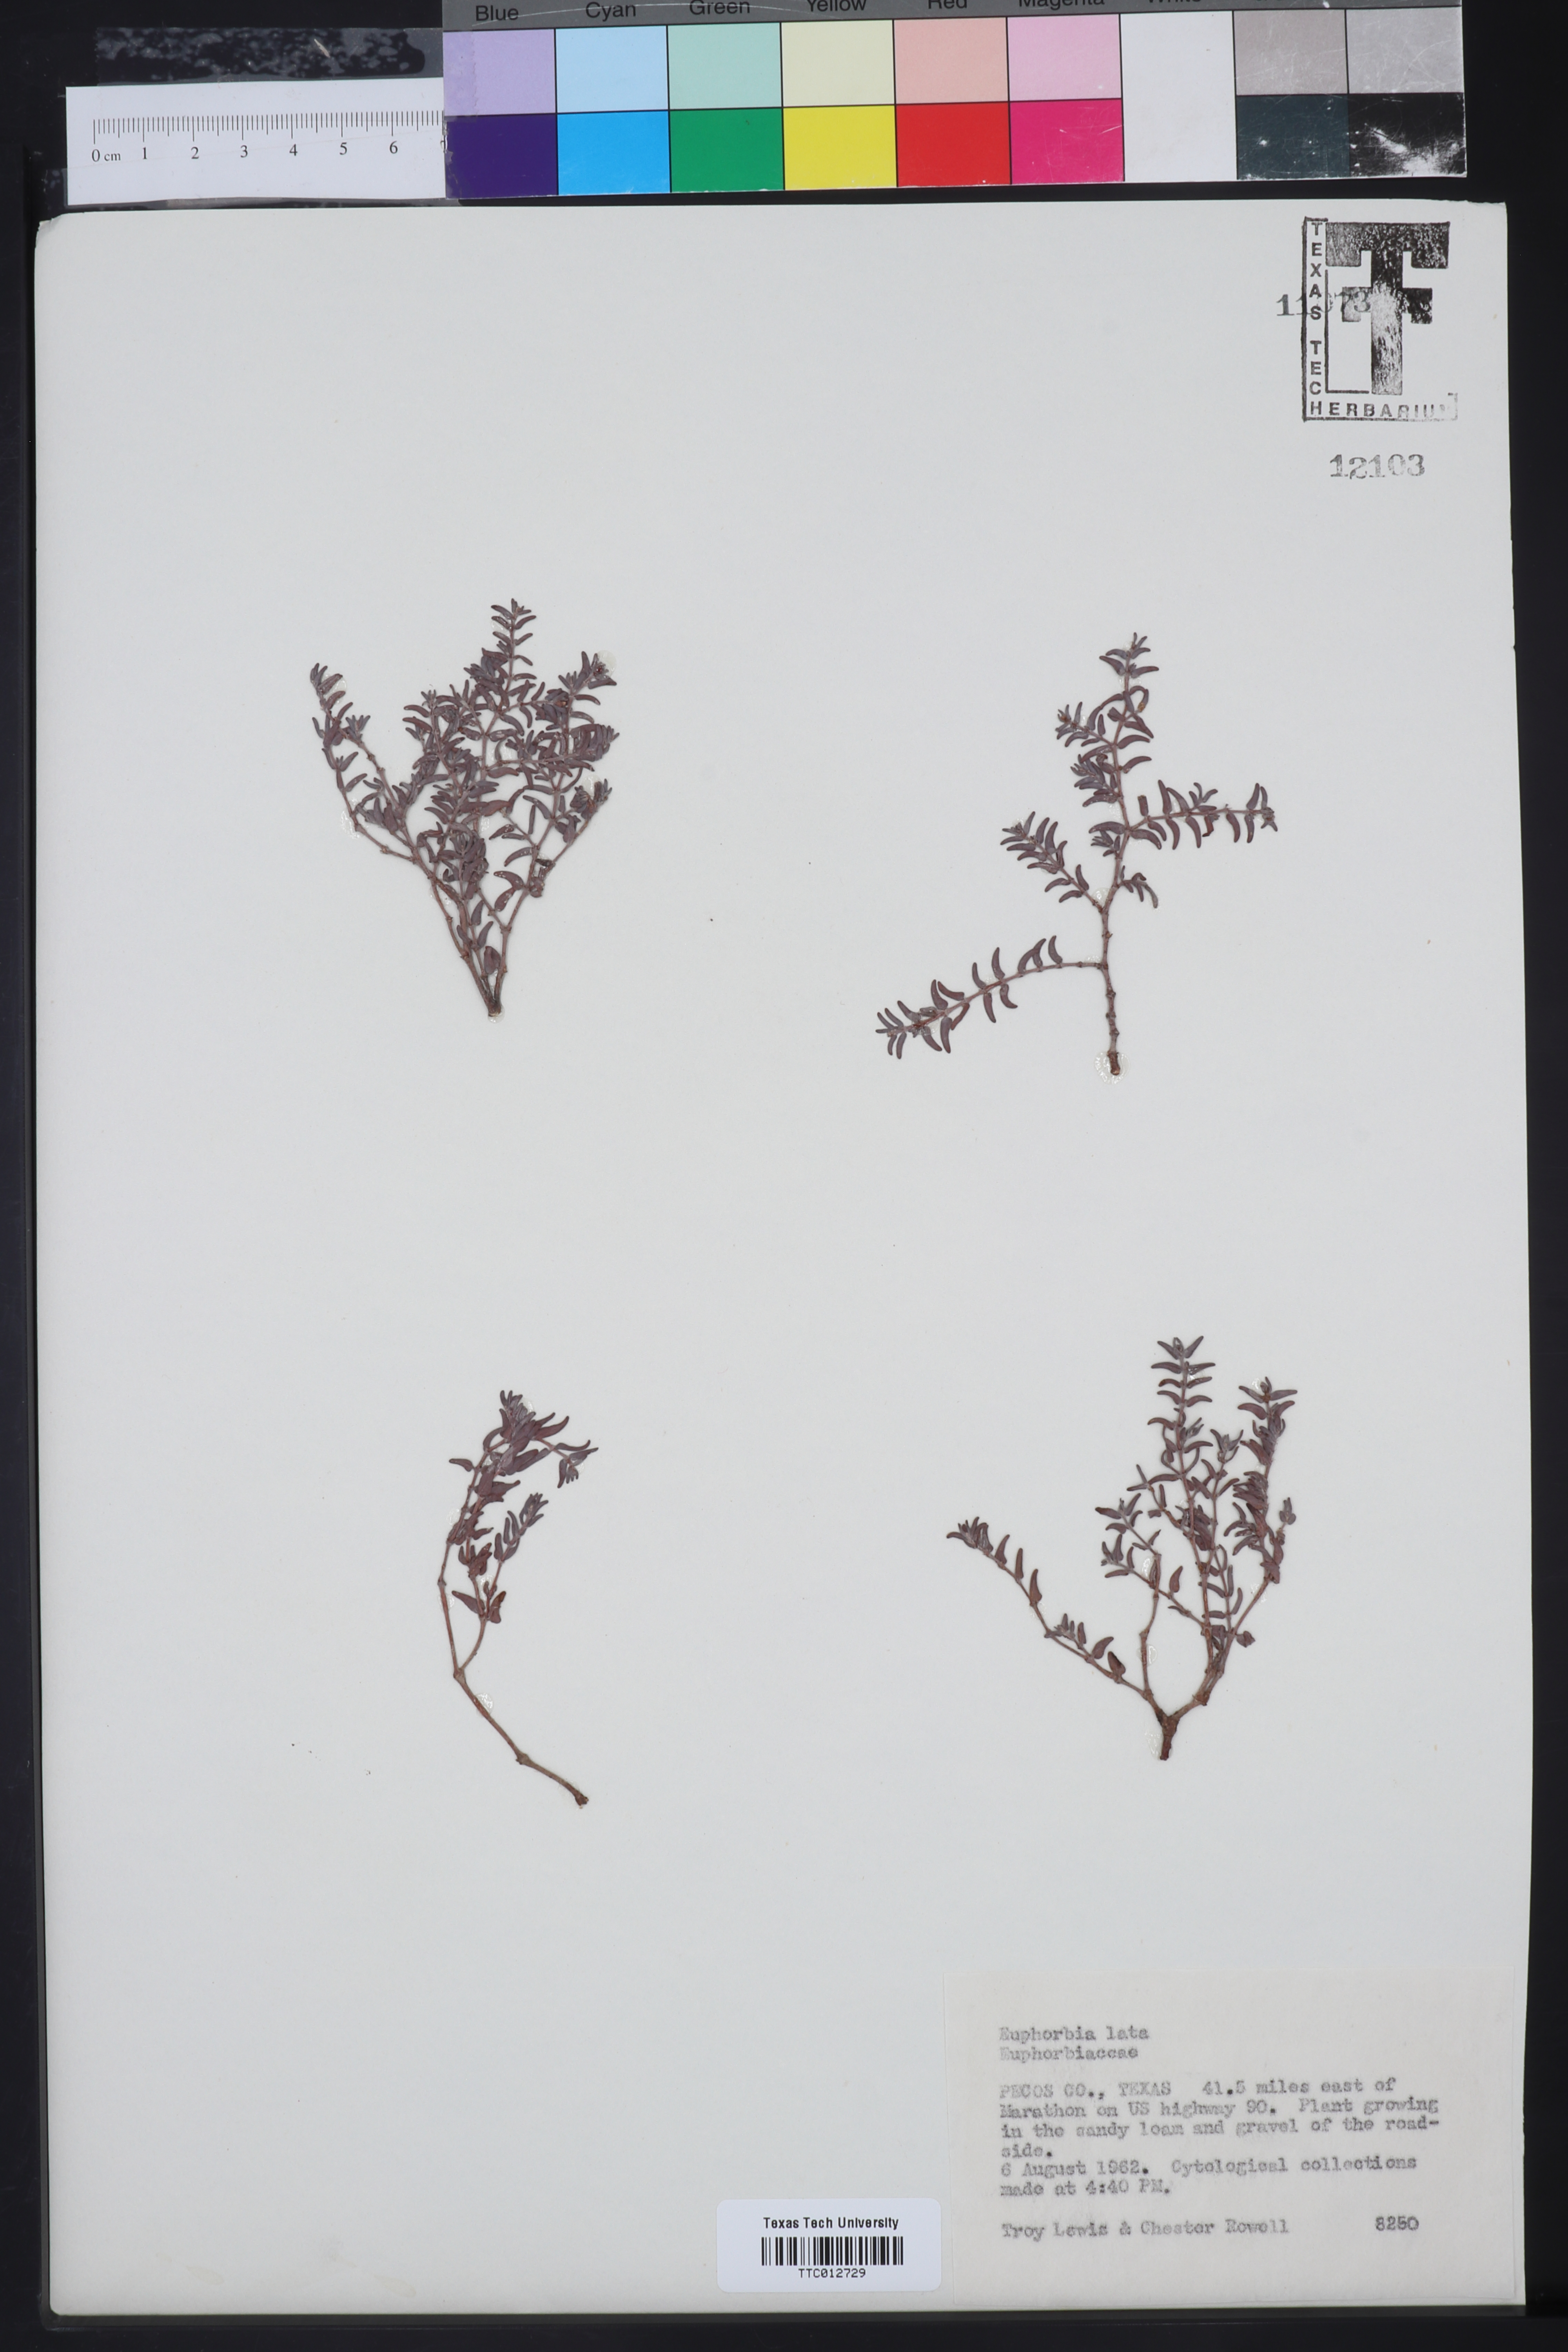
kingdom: Plantae
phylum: Tracheophyta
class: Magnoliopsida
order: Malpighiales
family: Euphorbiaceae
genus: Euphorbia
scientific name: Euphorbia lata
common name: Hoary euphorbia
